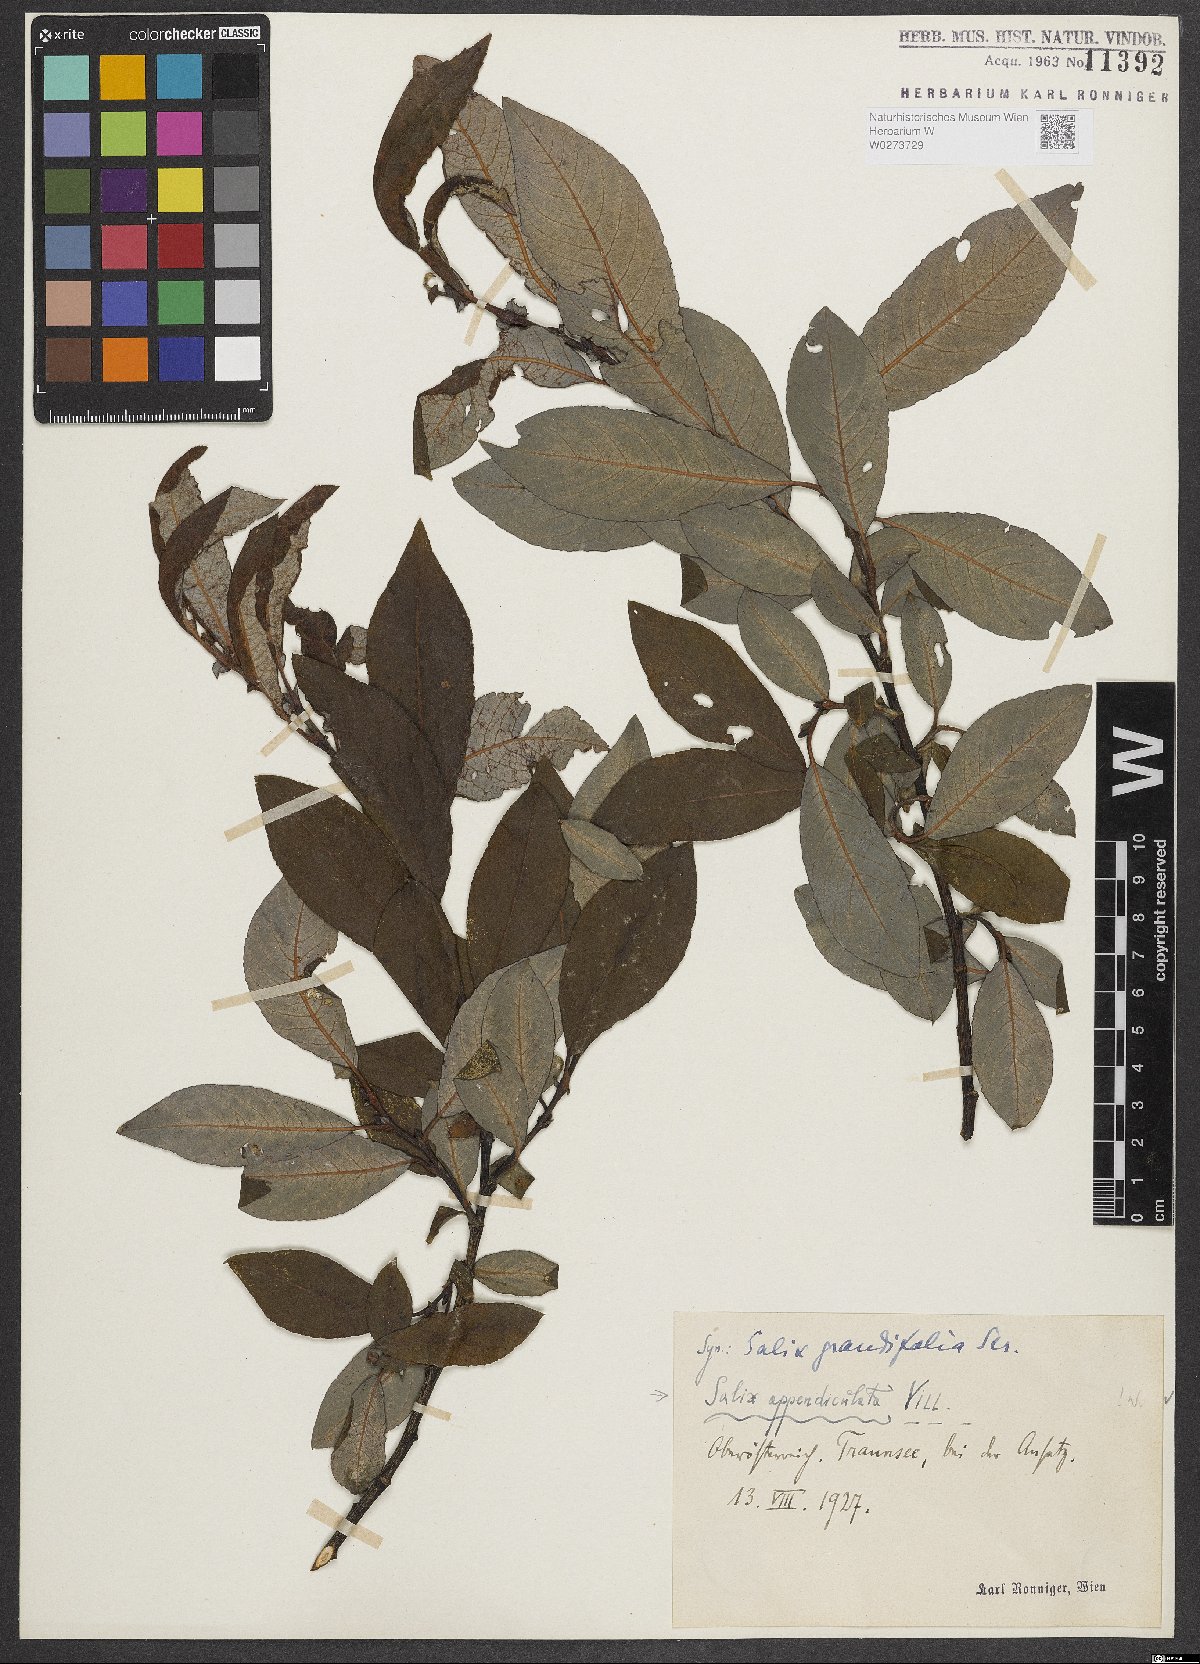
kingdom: Plantae
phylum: Tracheophyta
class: Magnoliopsida
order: Malpighiales
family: Salicaceae
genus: Salix
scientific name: Salix appendiculata
